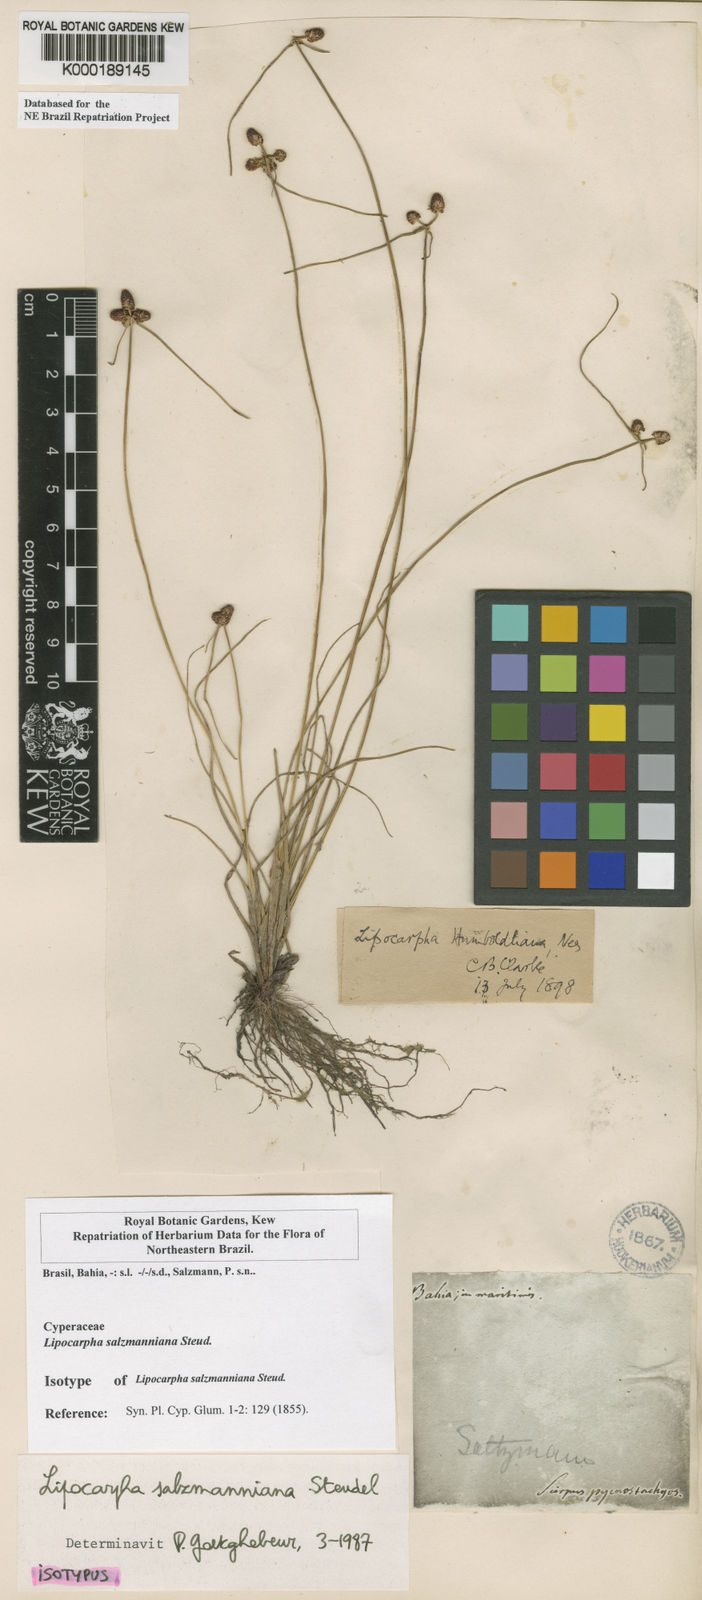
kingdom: Plantae
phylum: Tracheophyta
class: Liliopsida
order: Poales
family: Cyperaceae
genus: Cyperus
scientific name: Cyperus salzmannianus
